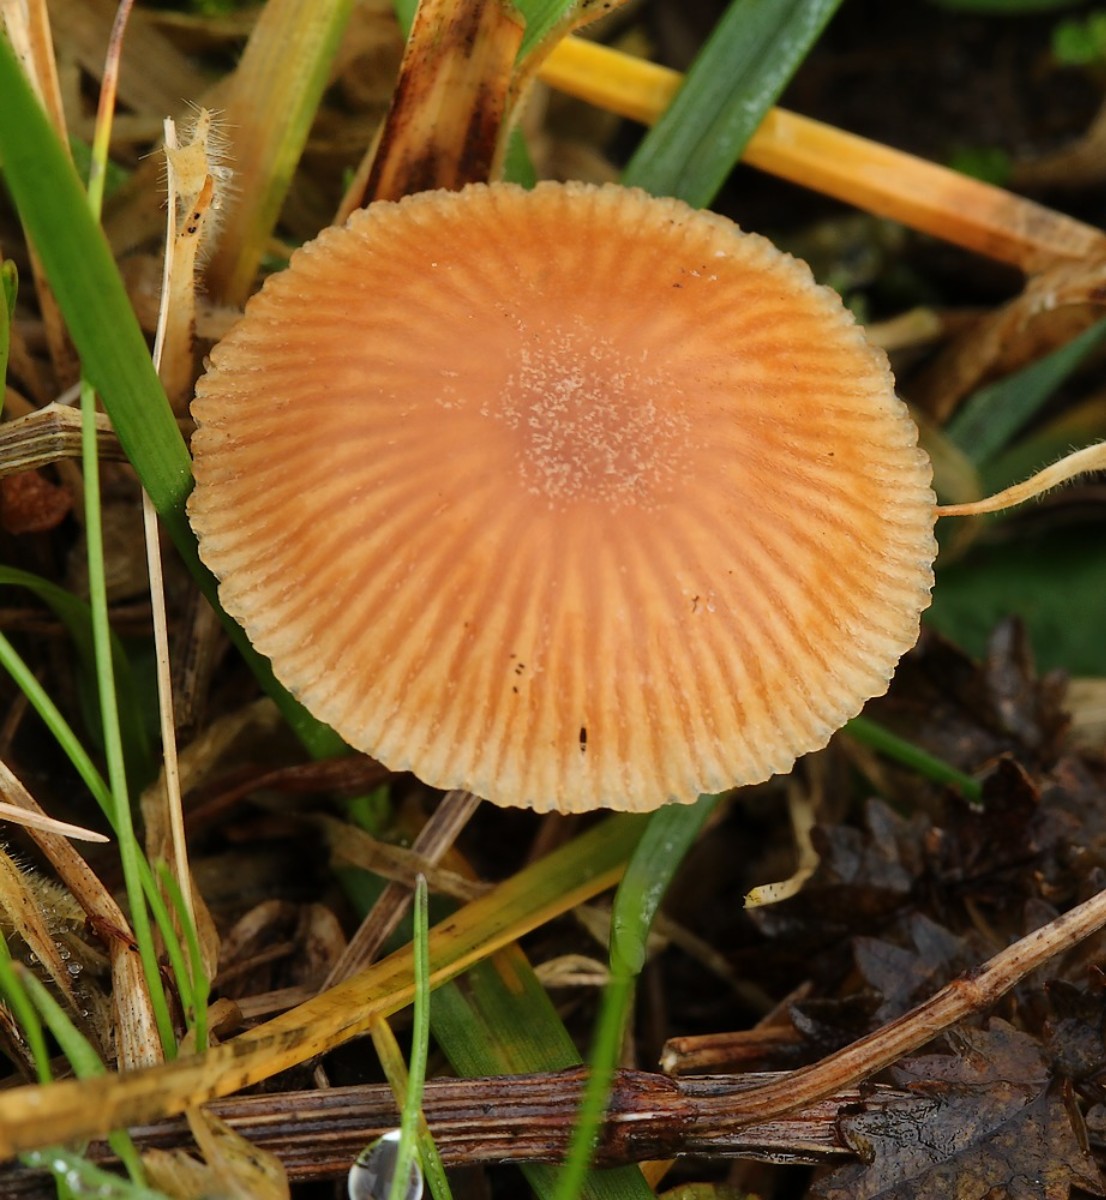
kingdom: Fungi
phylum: Basidiomycota
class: Agaricomycetes
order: Agaricales
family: Tubariaceae
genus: Tubaria
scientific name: Tubaria furfuracea
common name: kliddet fnughat
